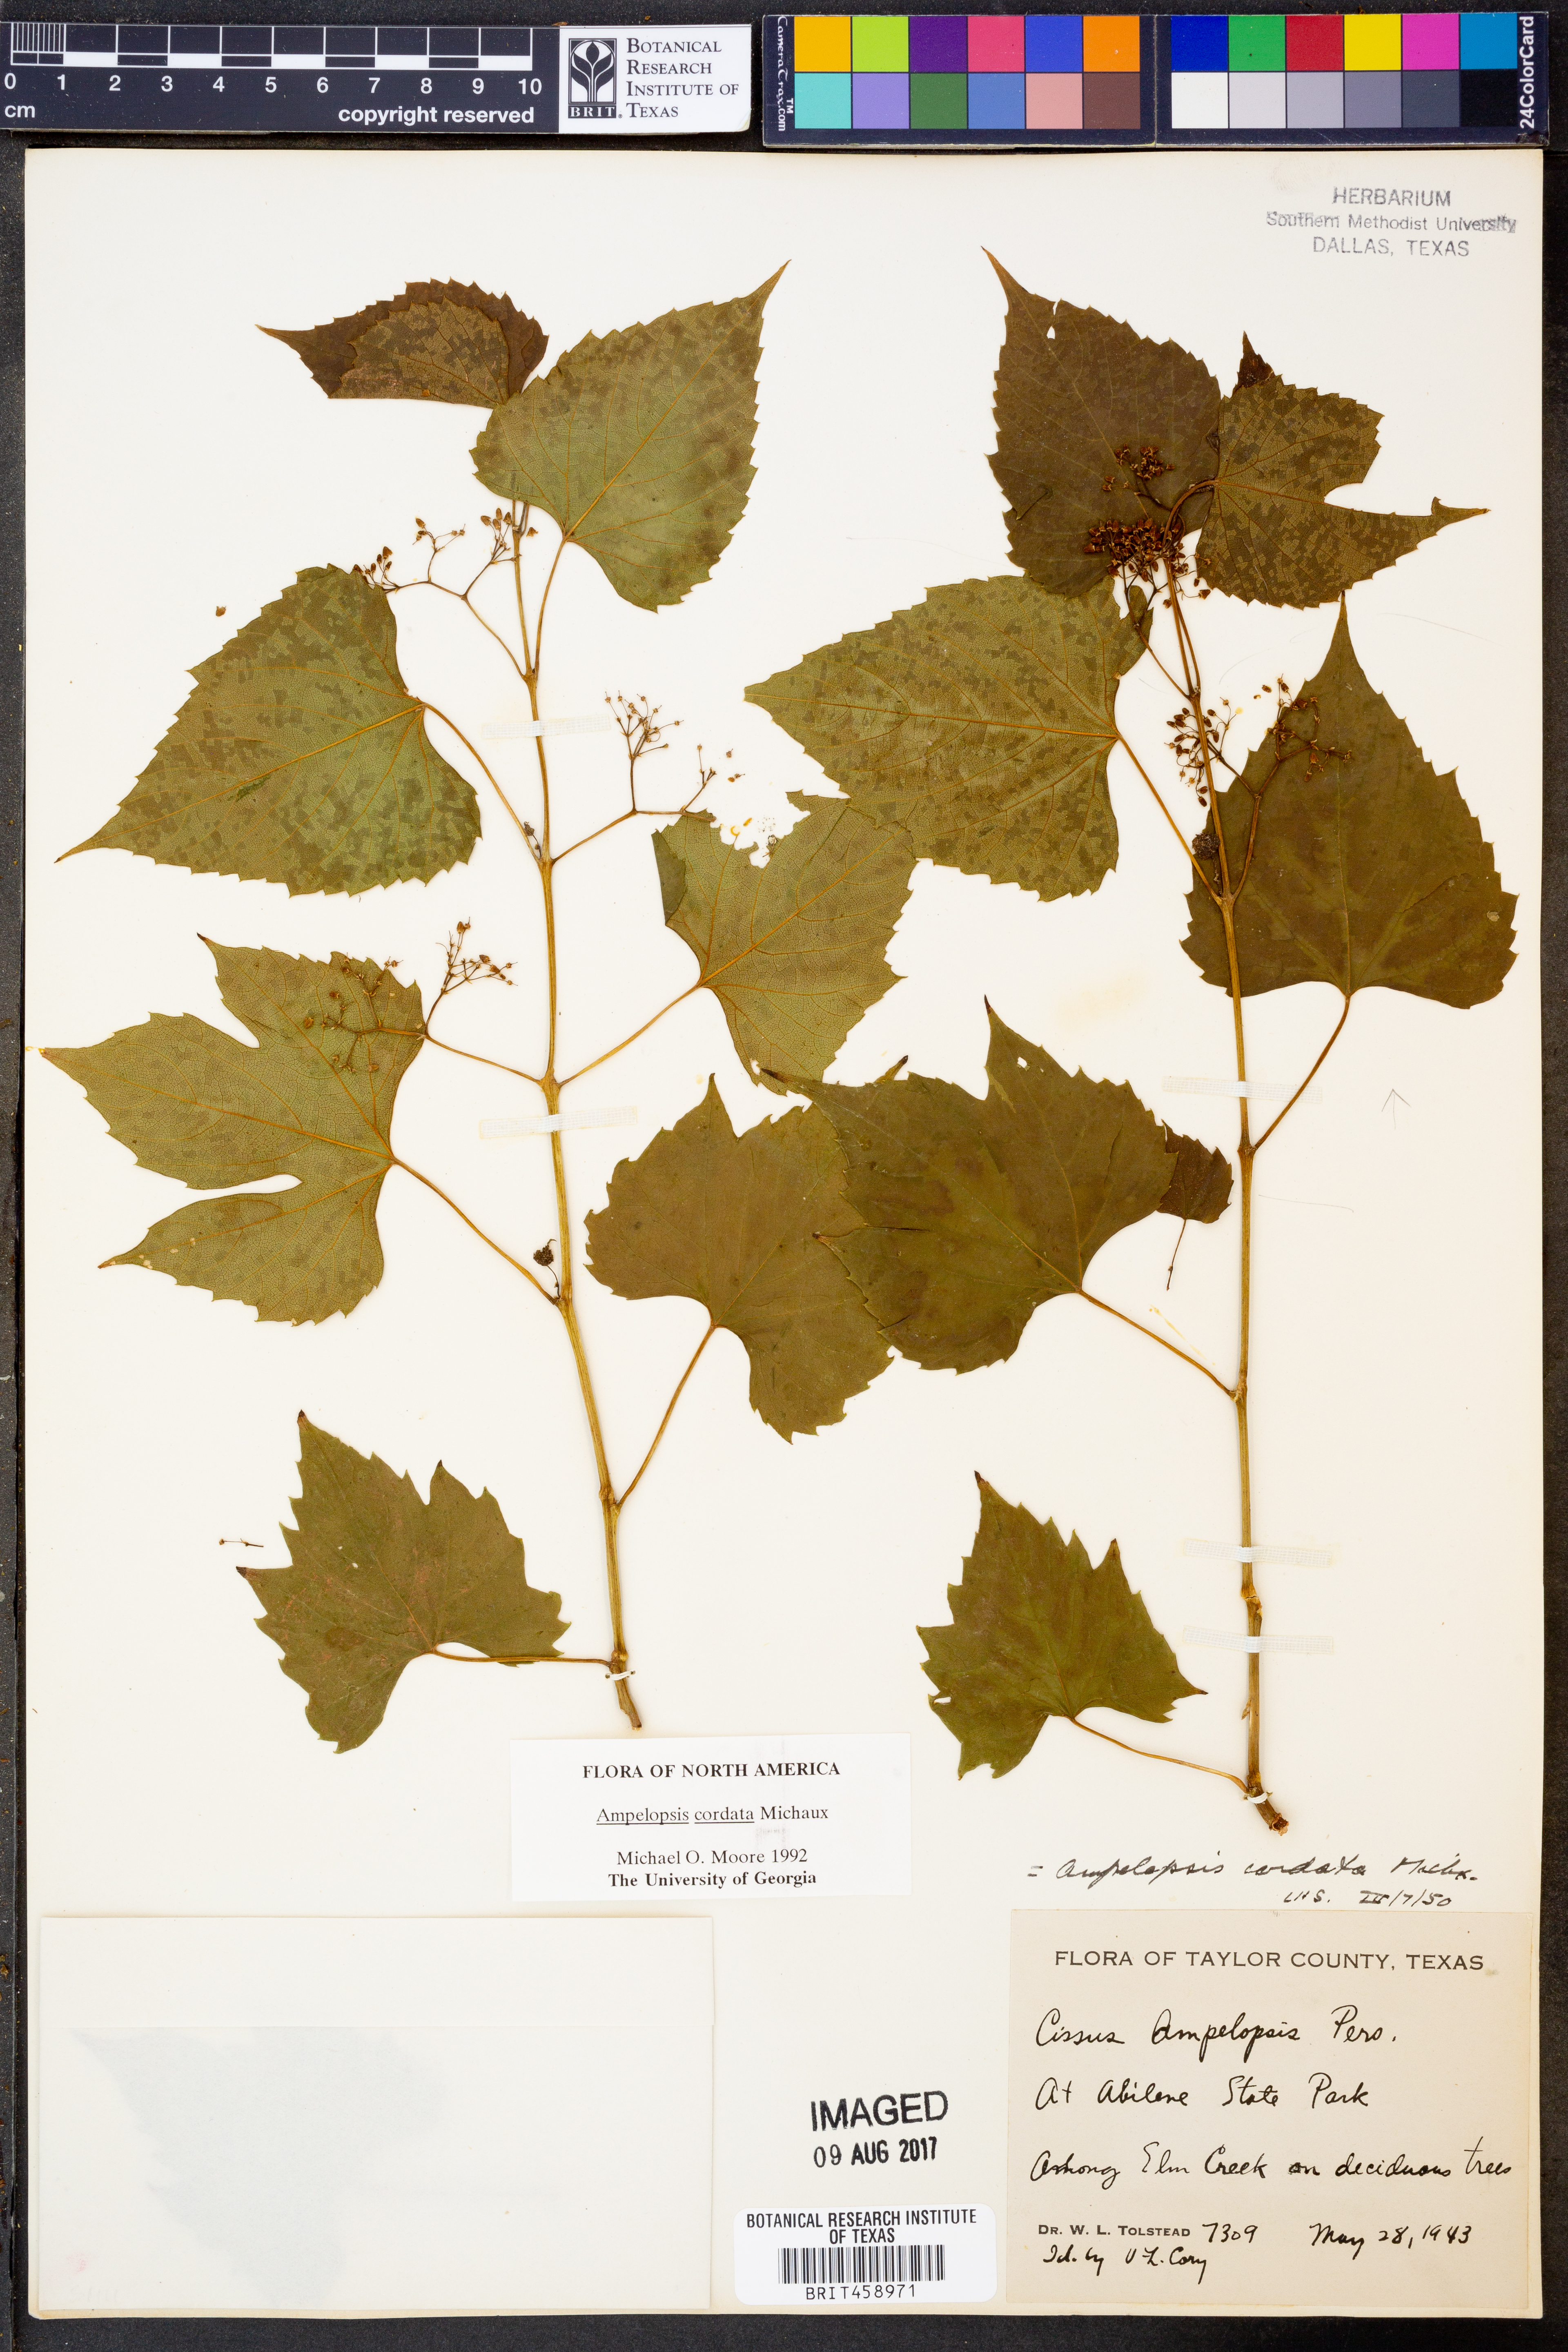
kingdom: Plantae
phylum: Tracheophyta
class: Magnoliopsida
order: Vitales
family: Vitaceae
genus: Ampelopsis
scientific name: Ampelopsis cordata
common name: Heart-leaf ampelopsis
